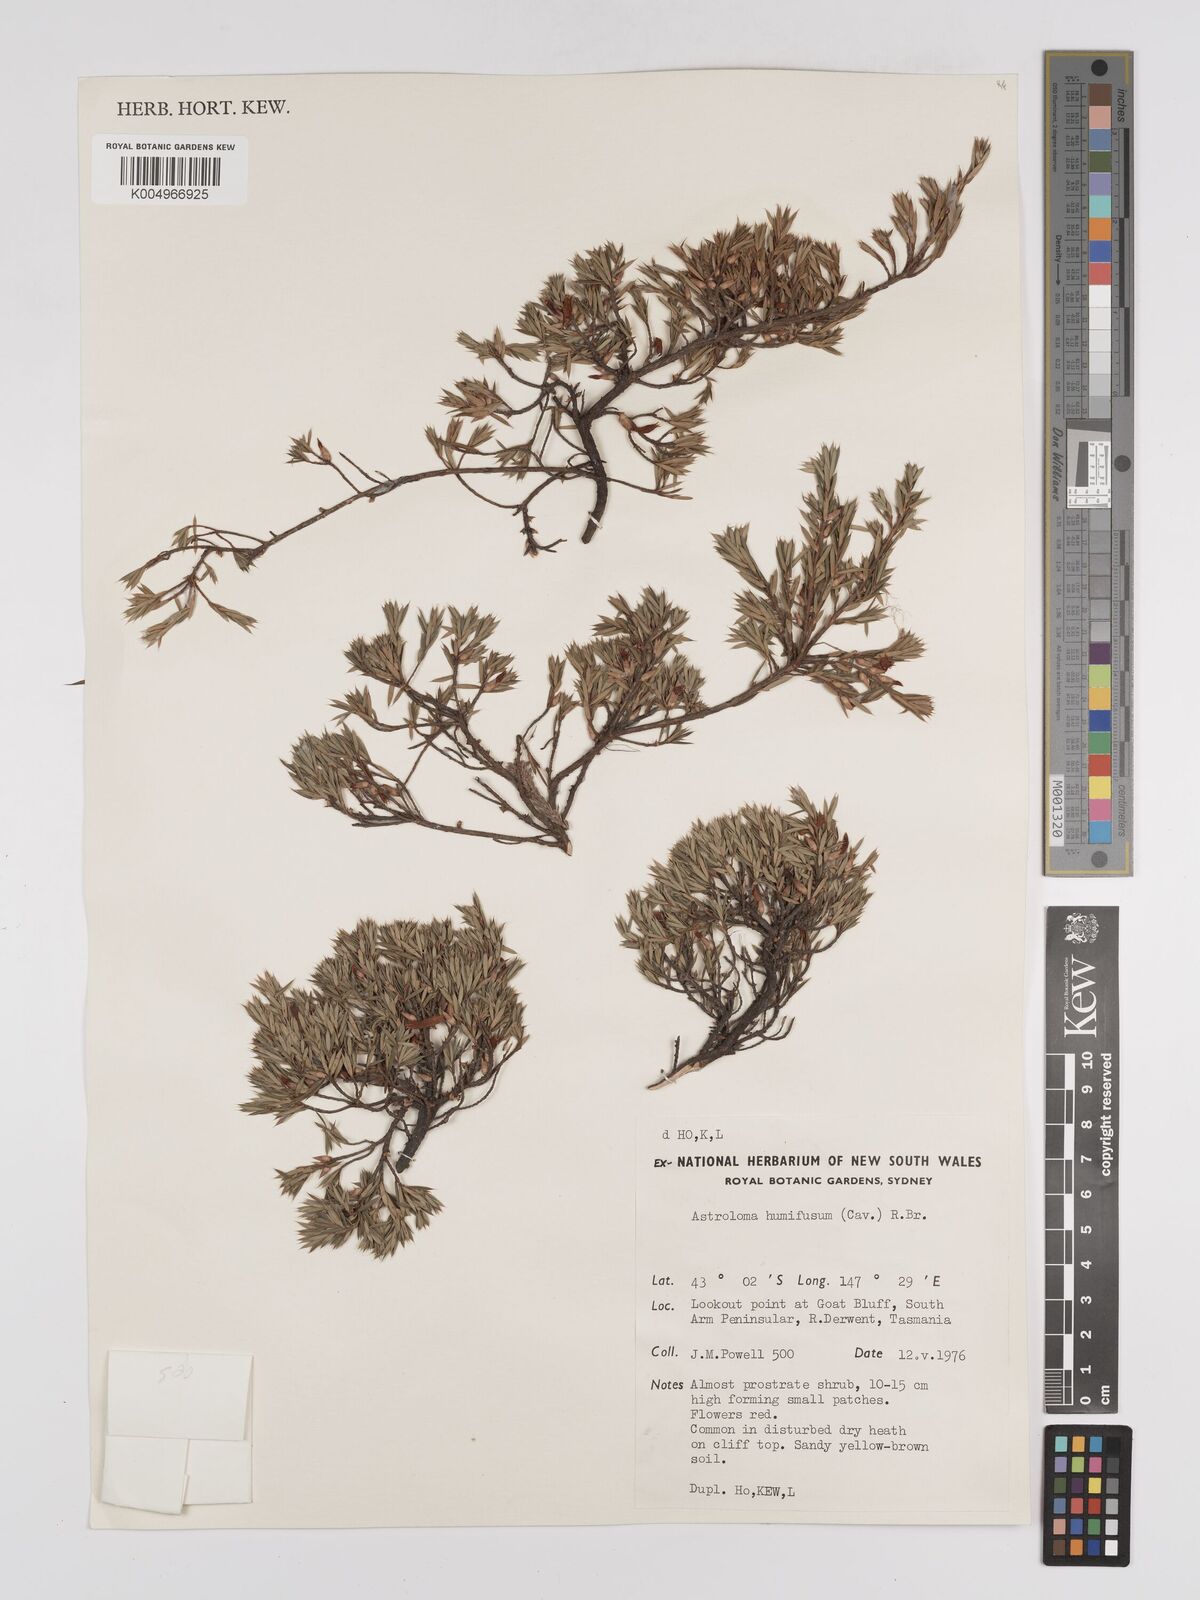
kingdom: Plantae
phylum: Tracheophyta
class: Magnoliopsida
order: Ericales
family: Ericaceae
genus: Styphelia
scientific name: Styphelia humifusa
